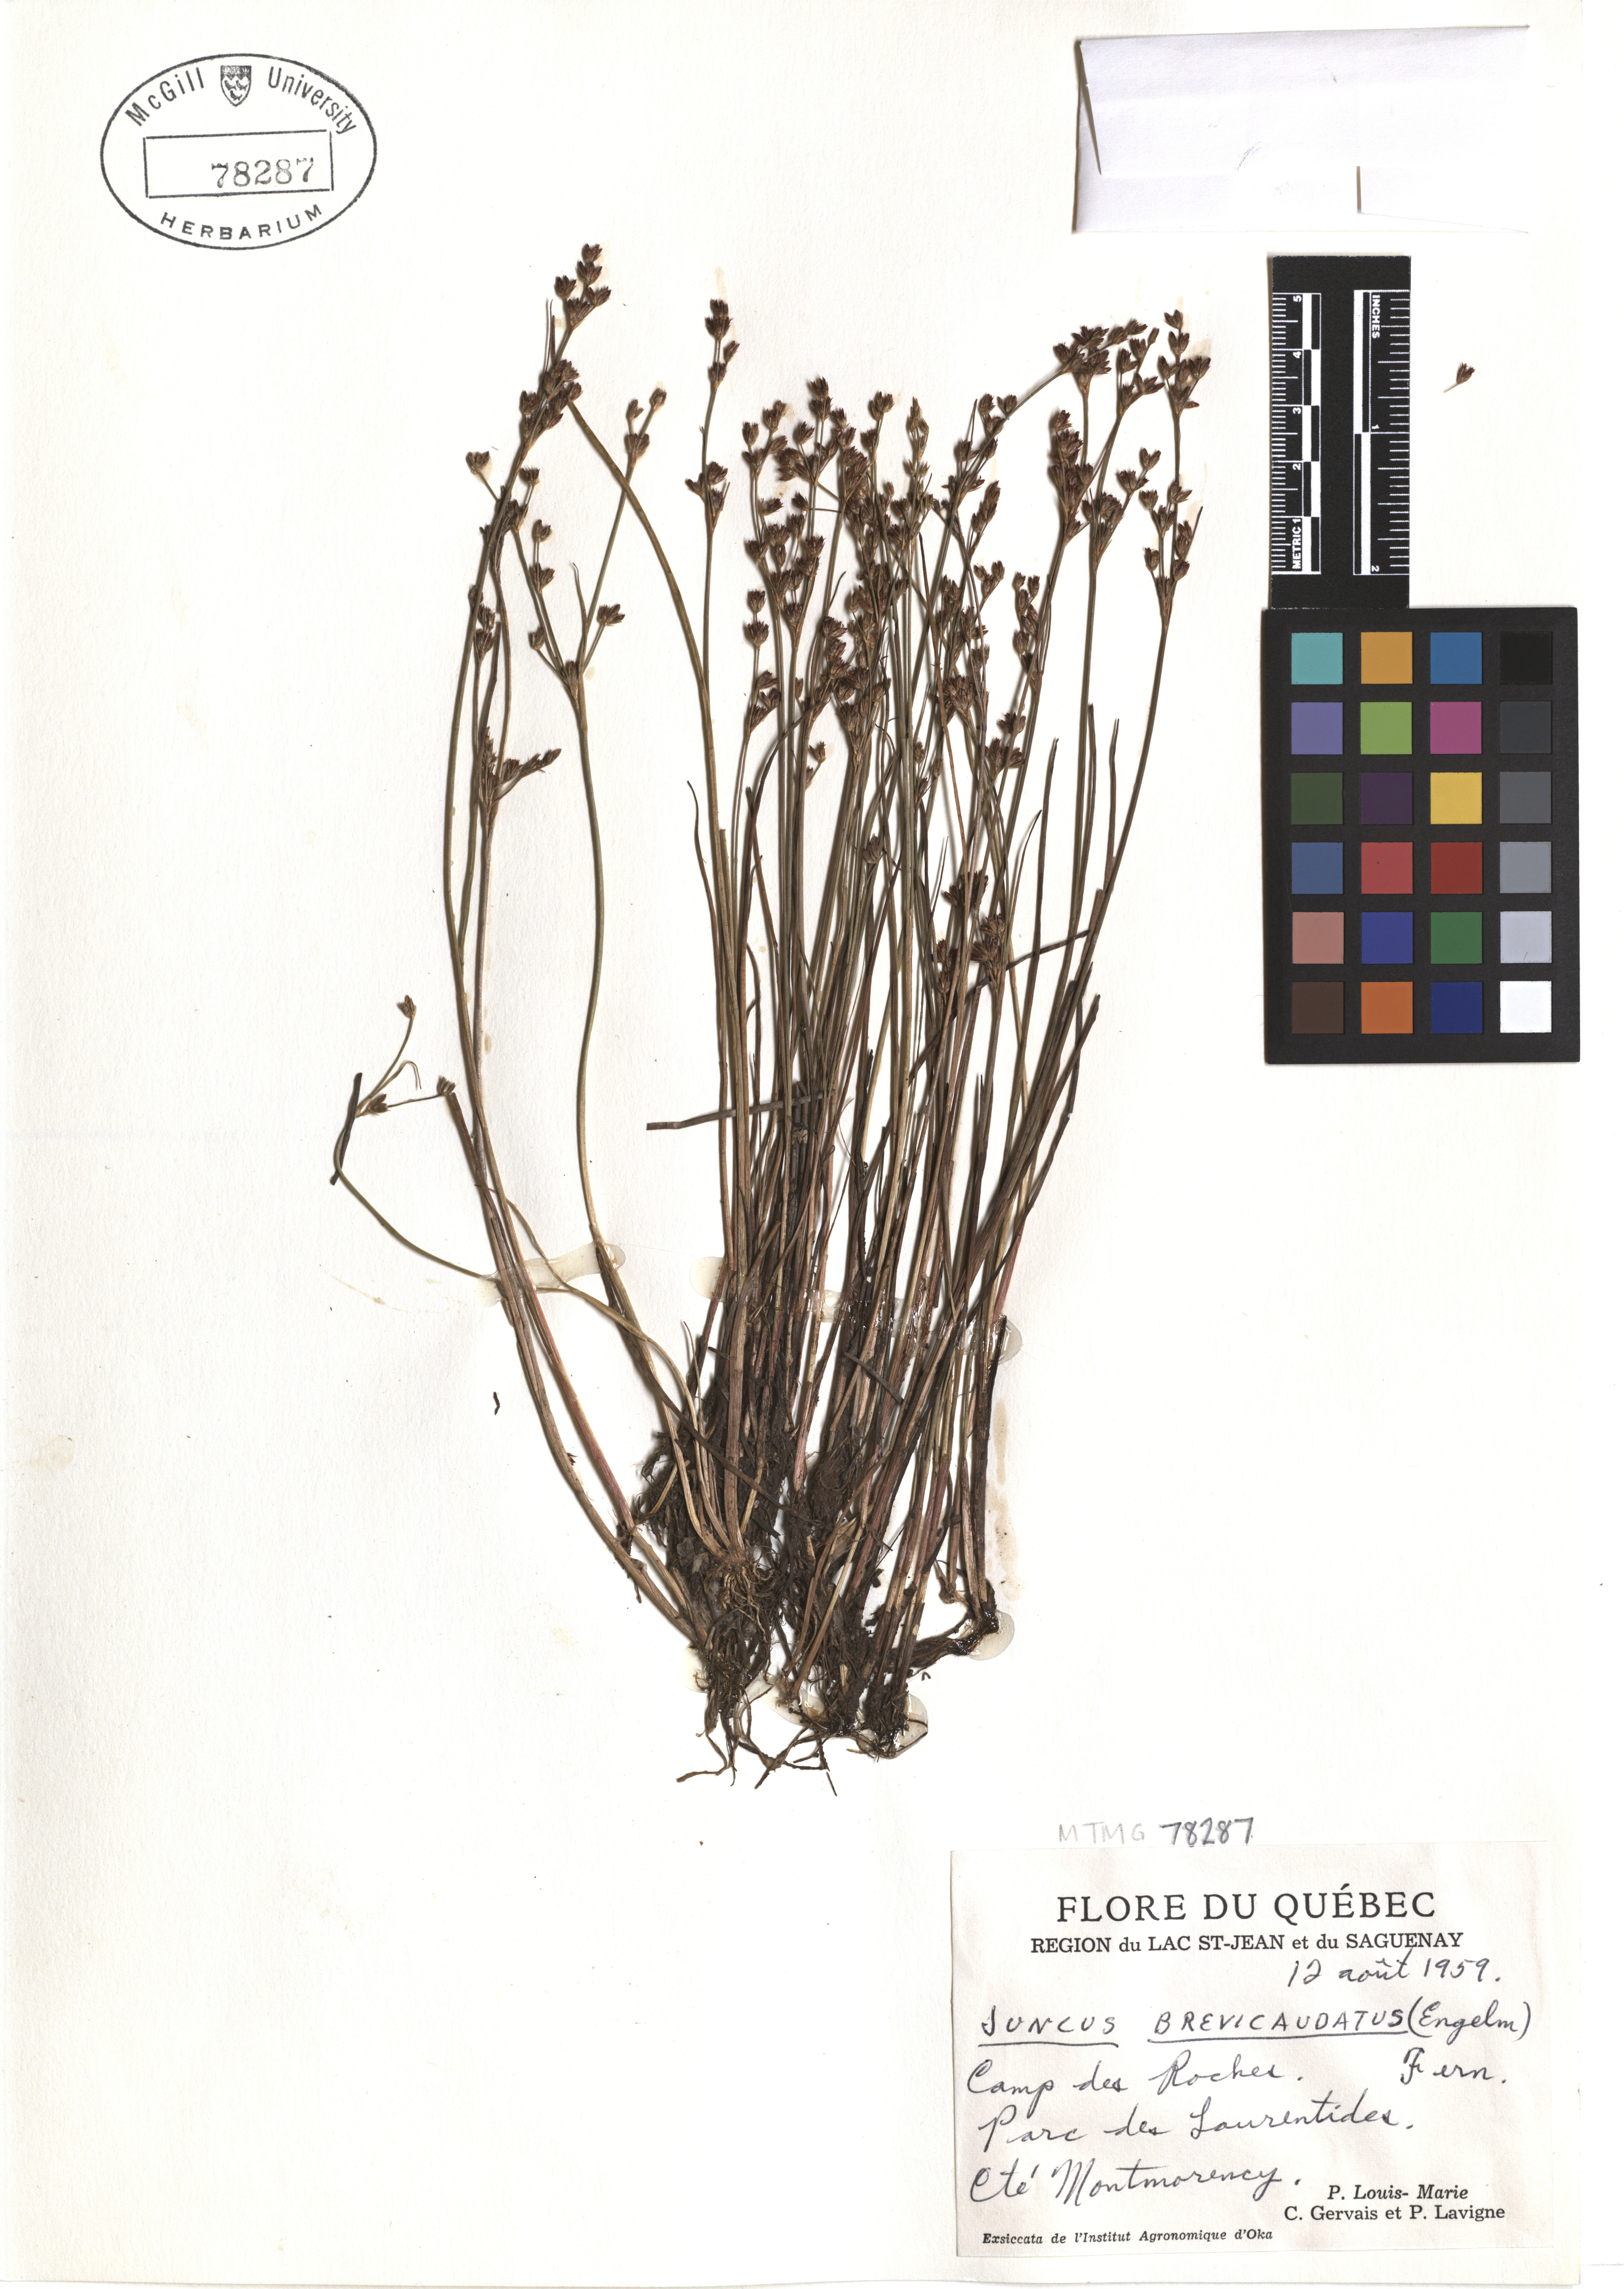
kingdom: Plantae
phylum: Tracheophyta
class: Liliopsida
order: Poales
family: Juncaceae
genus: Juncus
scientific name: Juncus brevicaudatus
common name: Narrow-panicle rush
